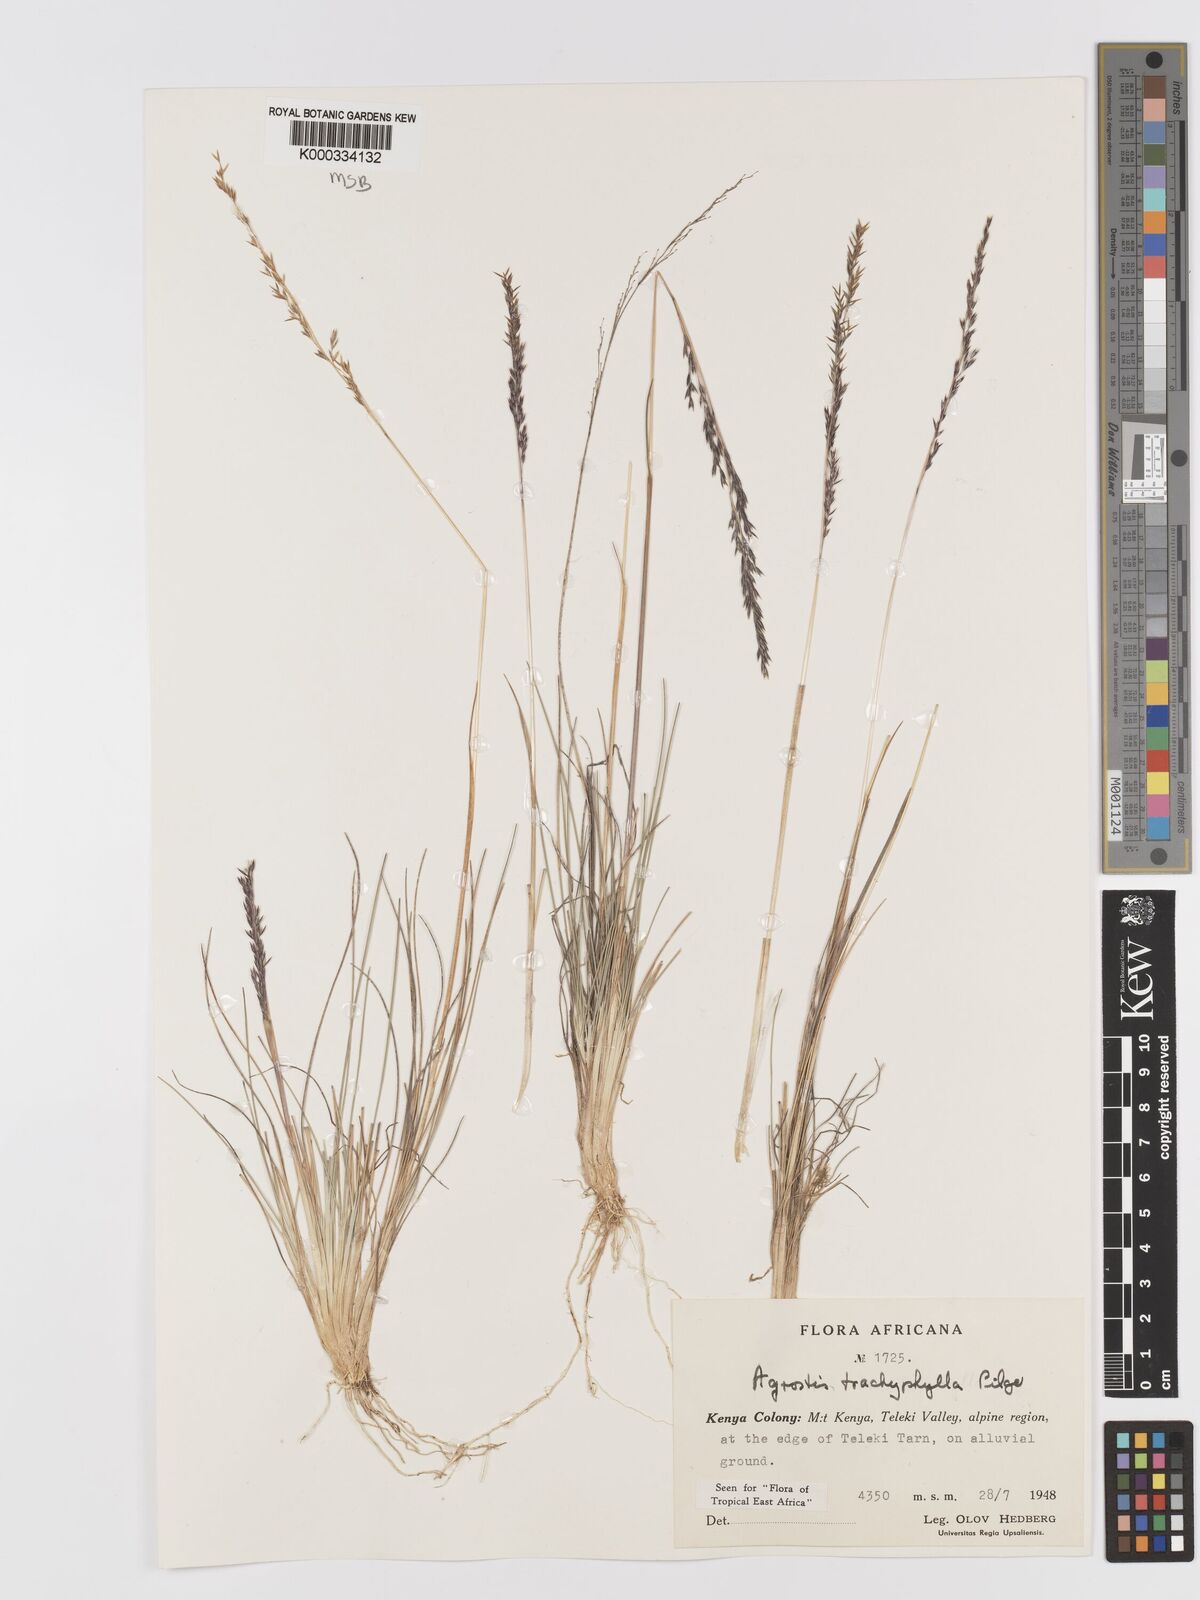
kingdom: Plantae
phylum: Tracheophyta
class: Liliopsida
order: Poales
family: Poaceae
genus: Agrostis
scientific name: Agrostis trachyphylla
